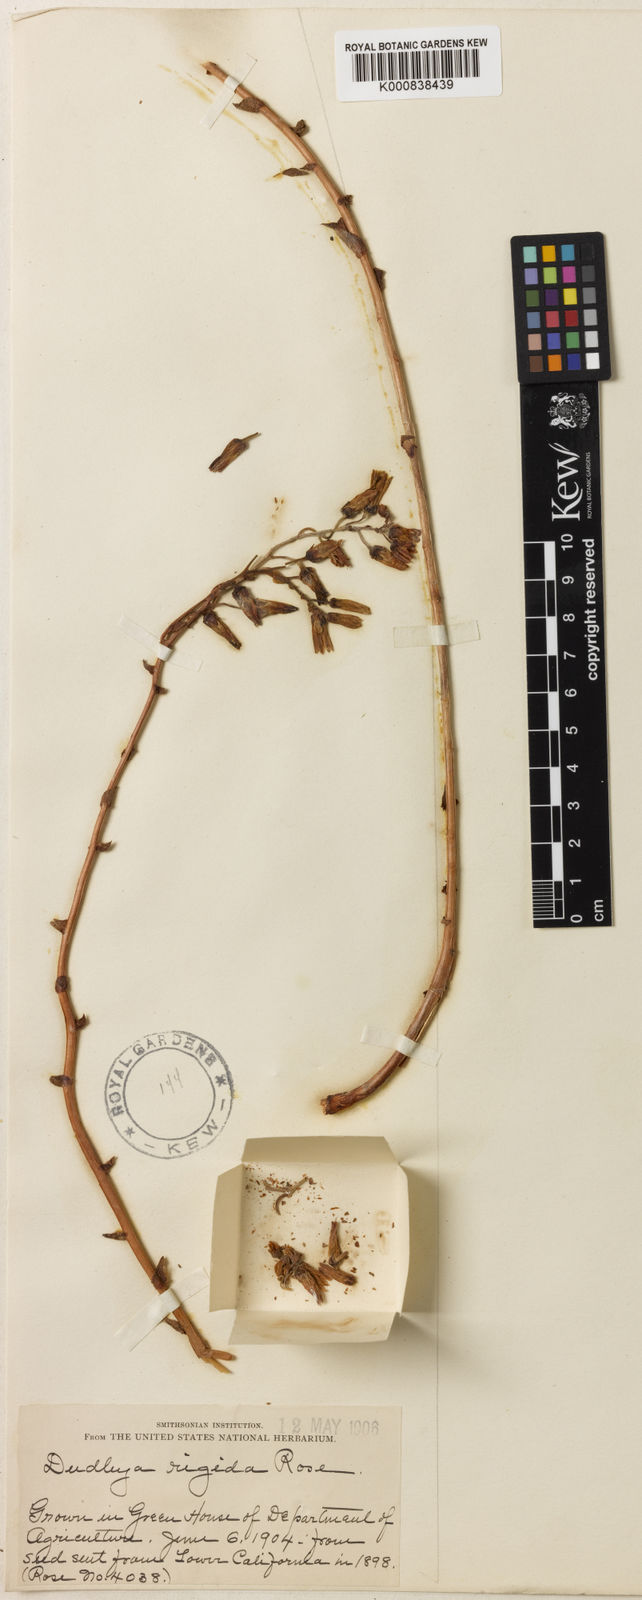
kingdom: Plantae
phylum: Tracheophyta
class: Magnoliopsida
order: Saxifragales
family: Crassulaceae
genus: Dudleya
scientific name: Dudleya rigida
